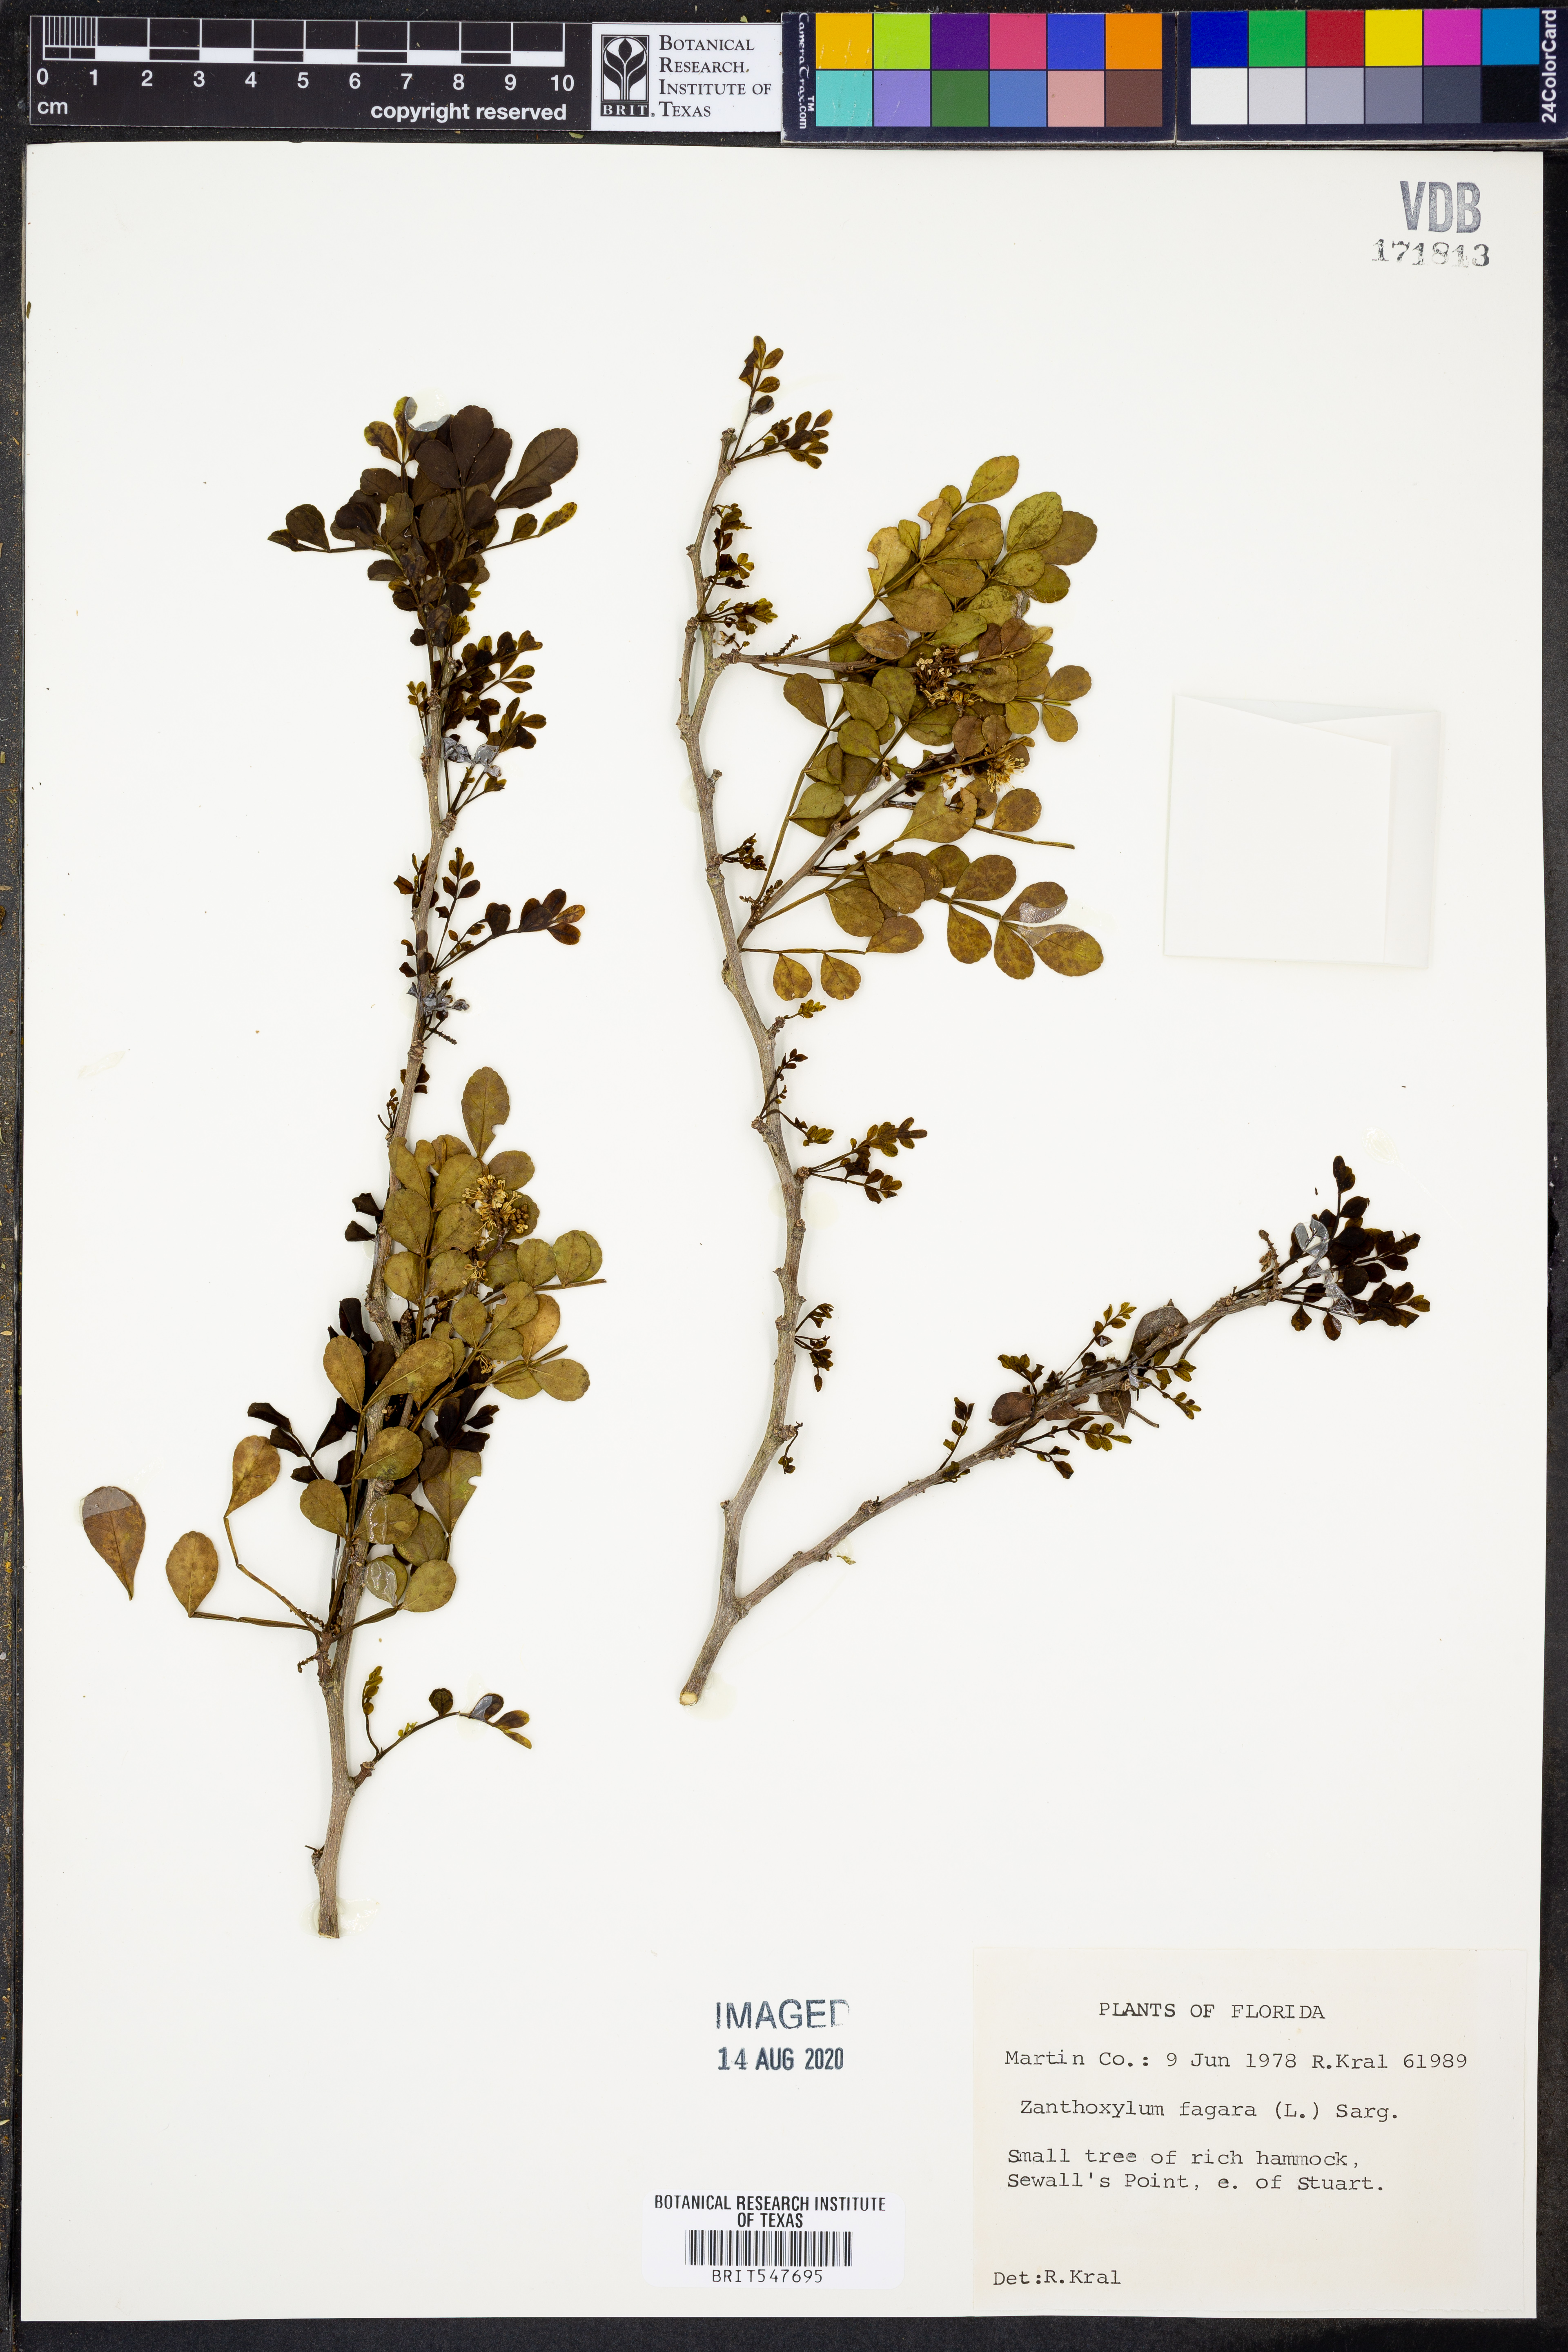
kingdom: Plantae
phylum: Tracheophyta
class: Magnoliopsida
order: Sapindales
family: Rutaceae
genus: Zanthoxylum
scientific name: Zanthoxylum fagara
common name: Lime prickly-ash
